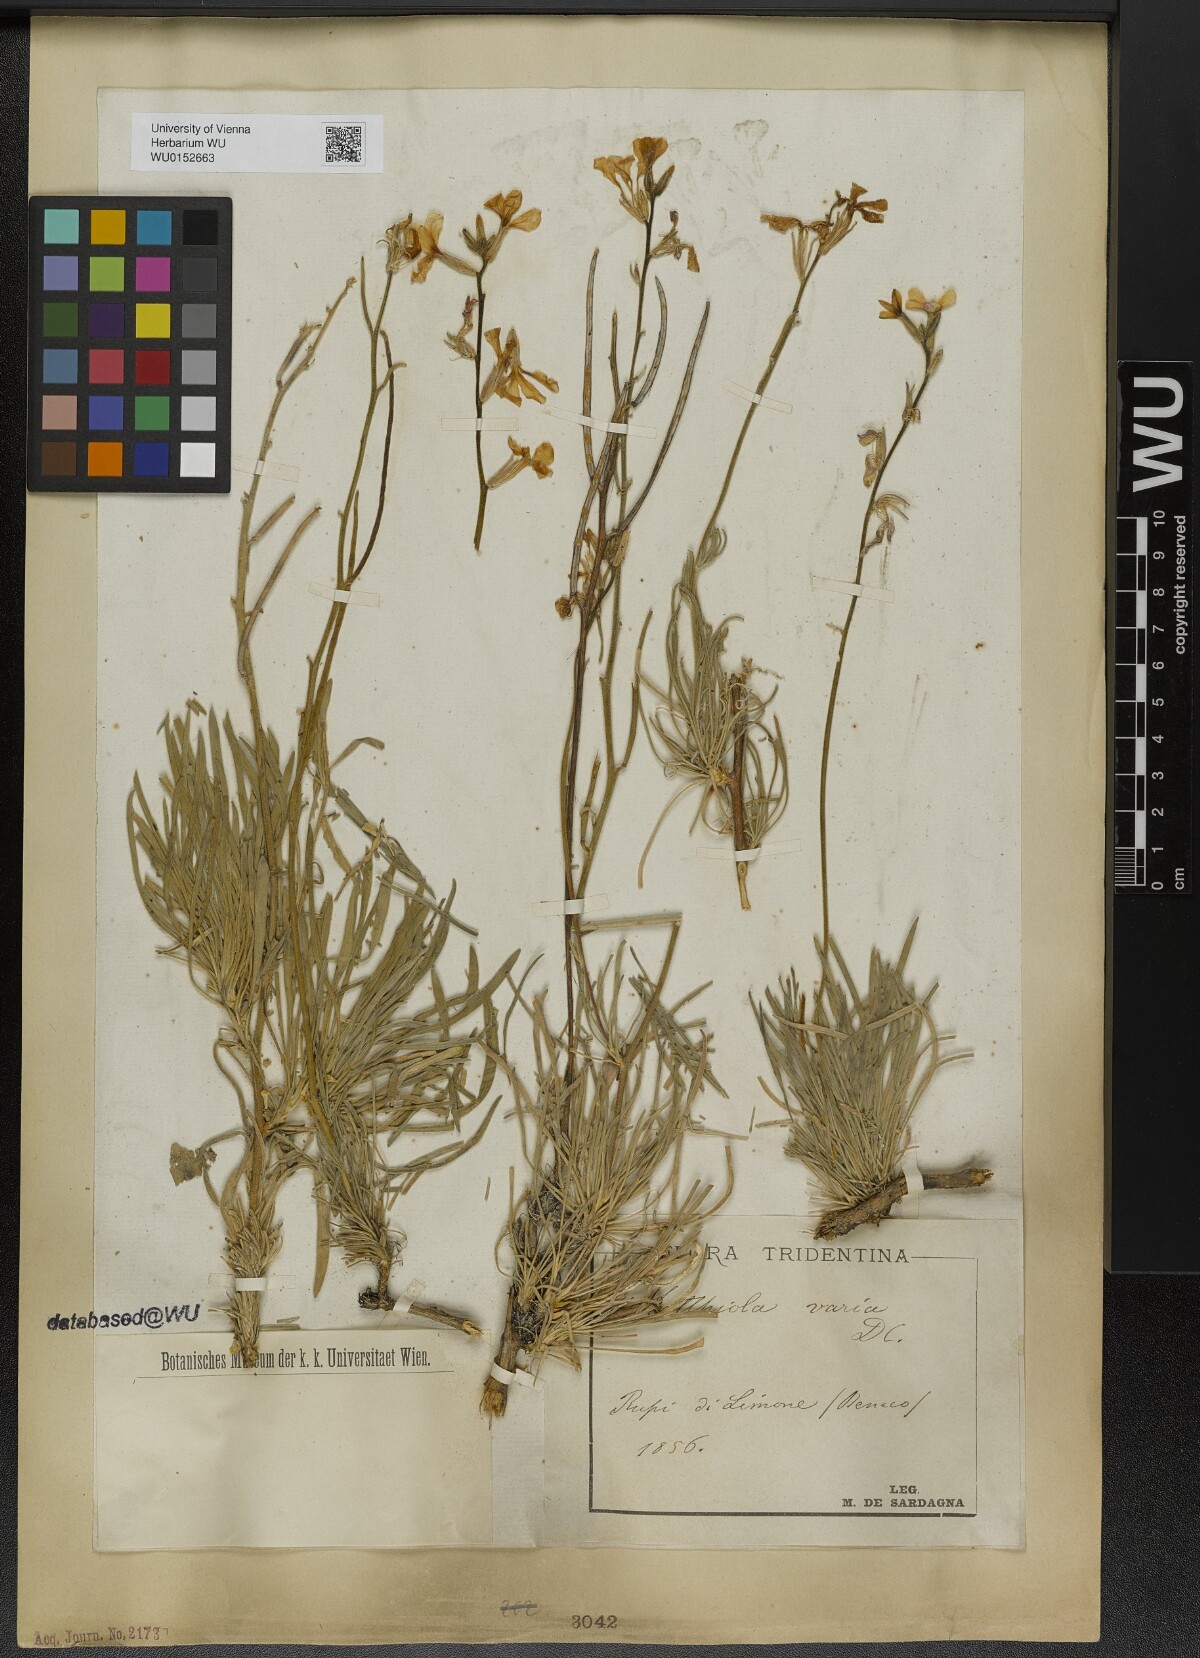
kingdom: Plantae
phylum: Tracheophyta
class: Magnoliopsida
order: Brassicales
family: Brassicaceae
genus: Matthiola
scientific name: Matthiola fruticulosa
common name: Sad stock
